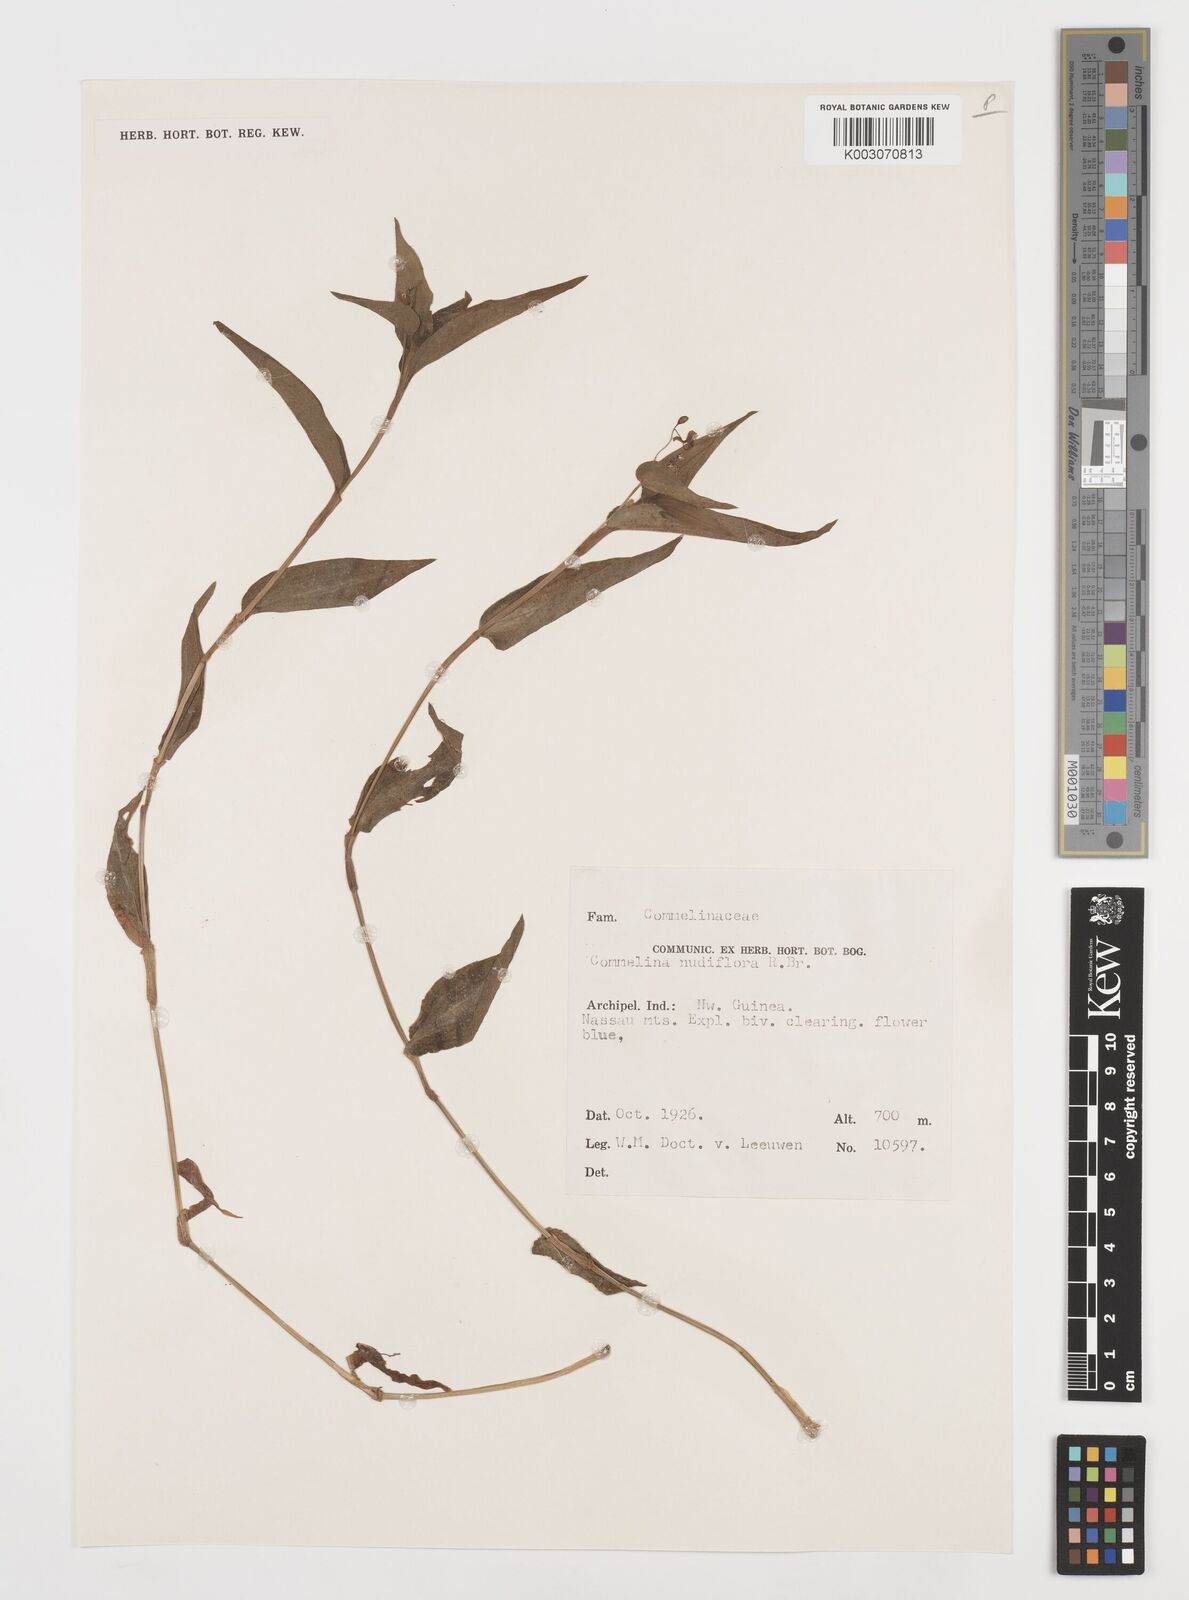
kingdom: Plantae
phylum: Tracheophyta
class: Liliopsida
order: Commelinales
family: Commelinaceae
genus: Commelina
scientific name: Commelina clavata
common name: Willow leaved dayflower
